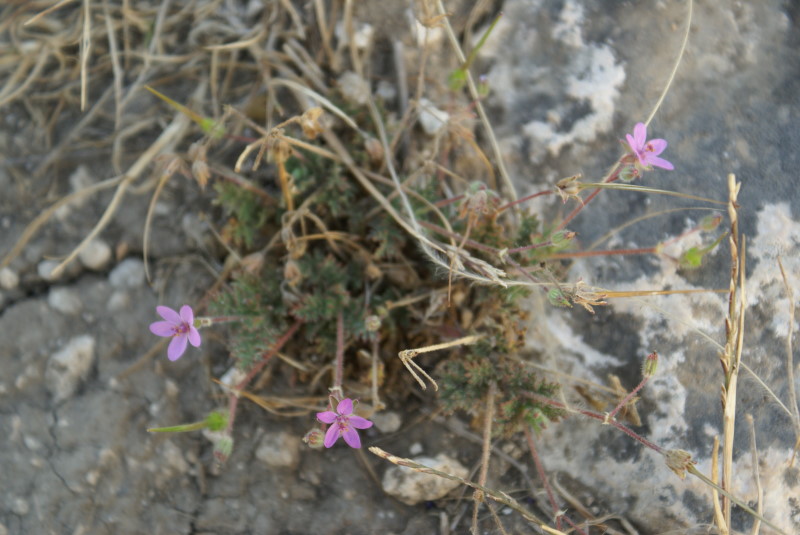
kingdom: Plantae
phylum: Tracheophyta
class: Magnoliopsida
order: Geraniales
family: Geraniaceae
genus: Erodium
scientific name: Erodium cicutarium
